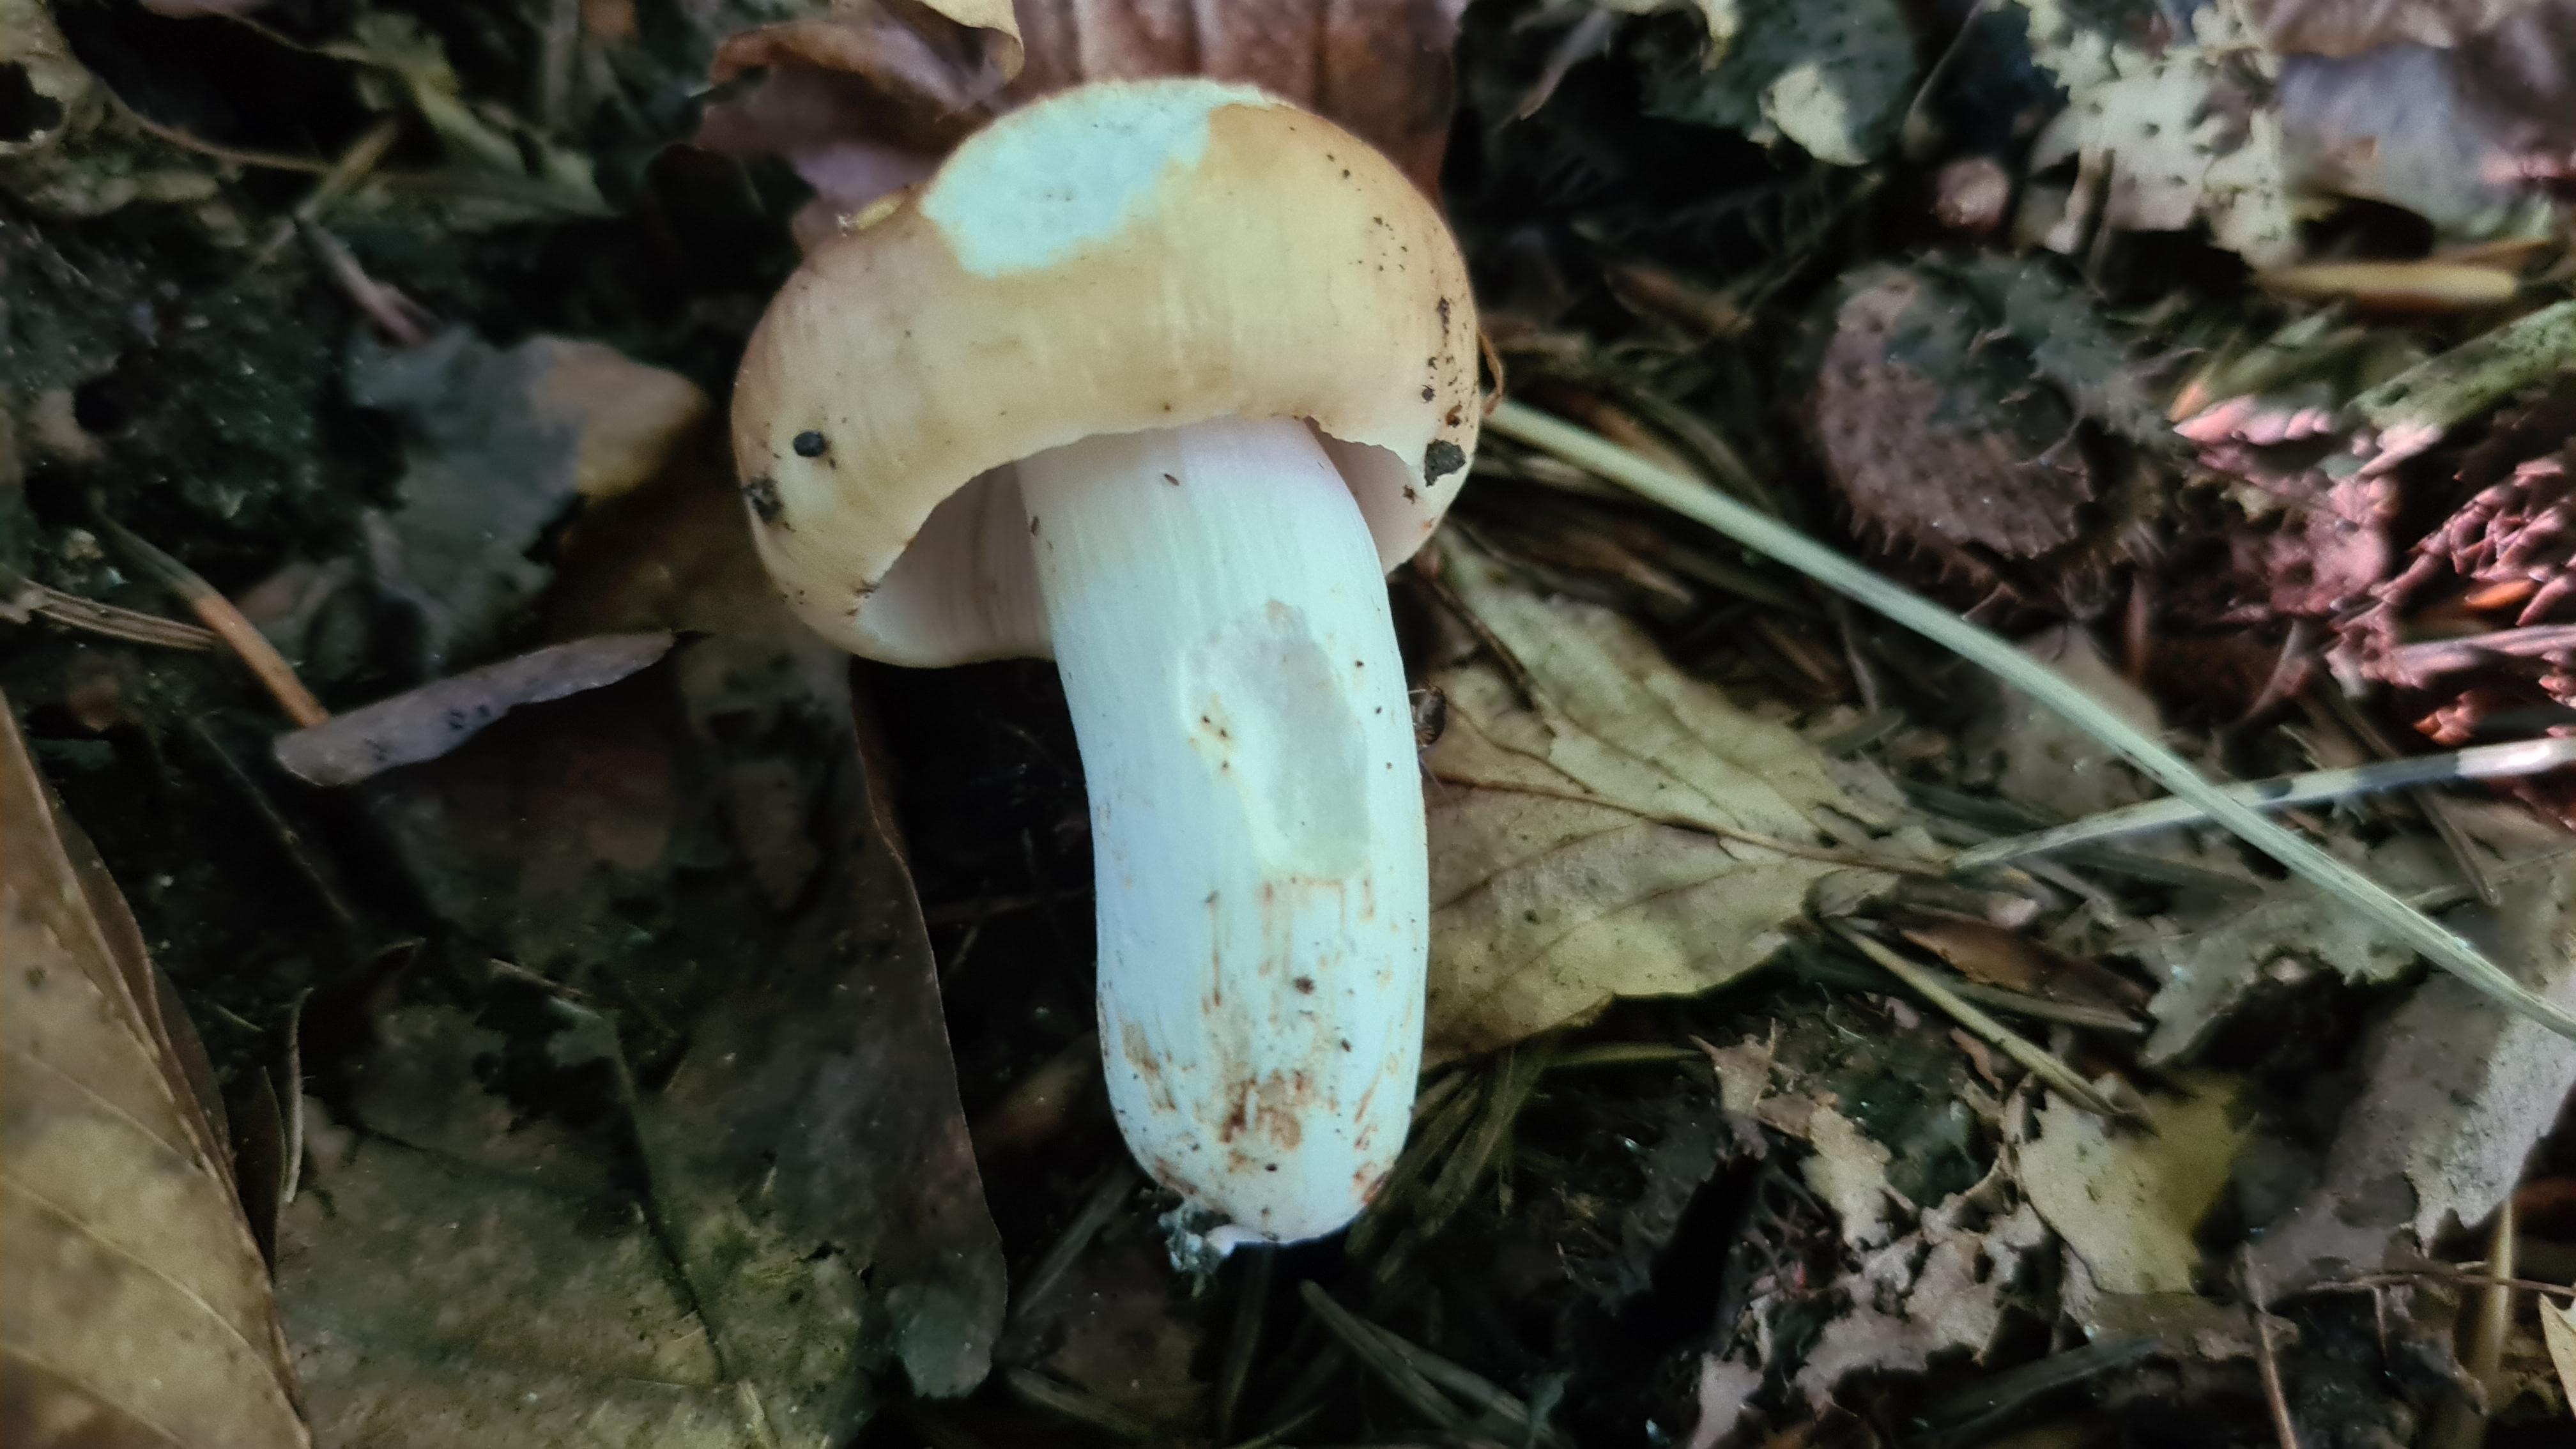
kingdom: Fungi
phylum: Basidiomycota
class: Agaricomycetes
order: Russulales
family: Russulaceae
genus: Russula
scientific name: Russula grata
